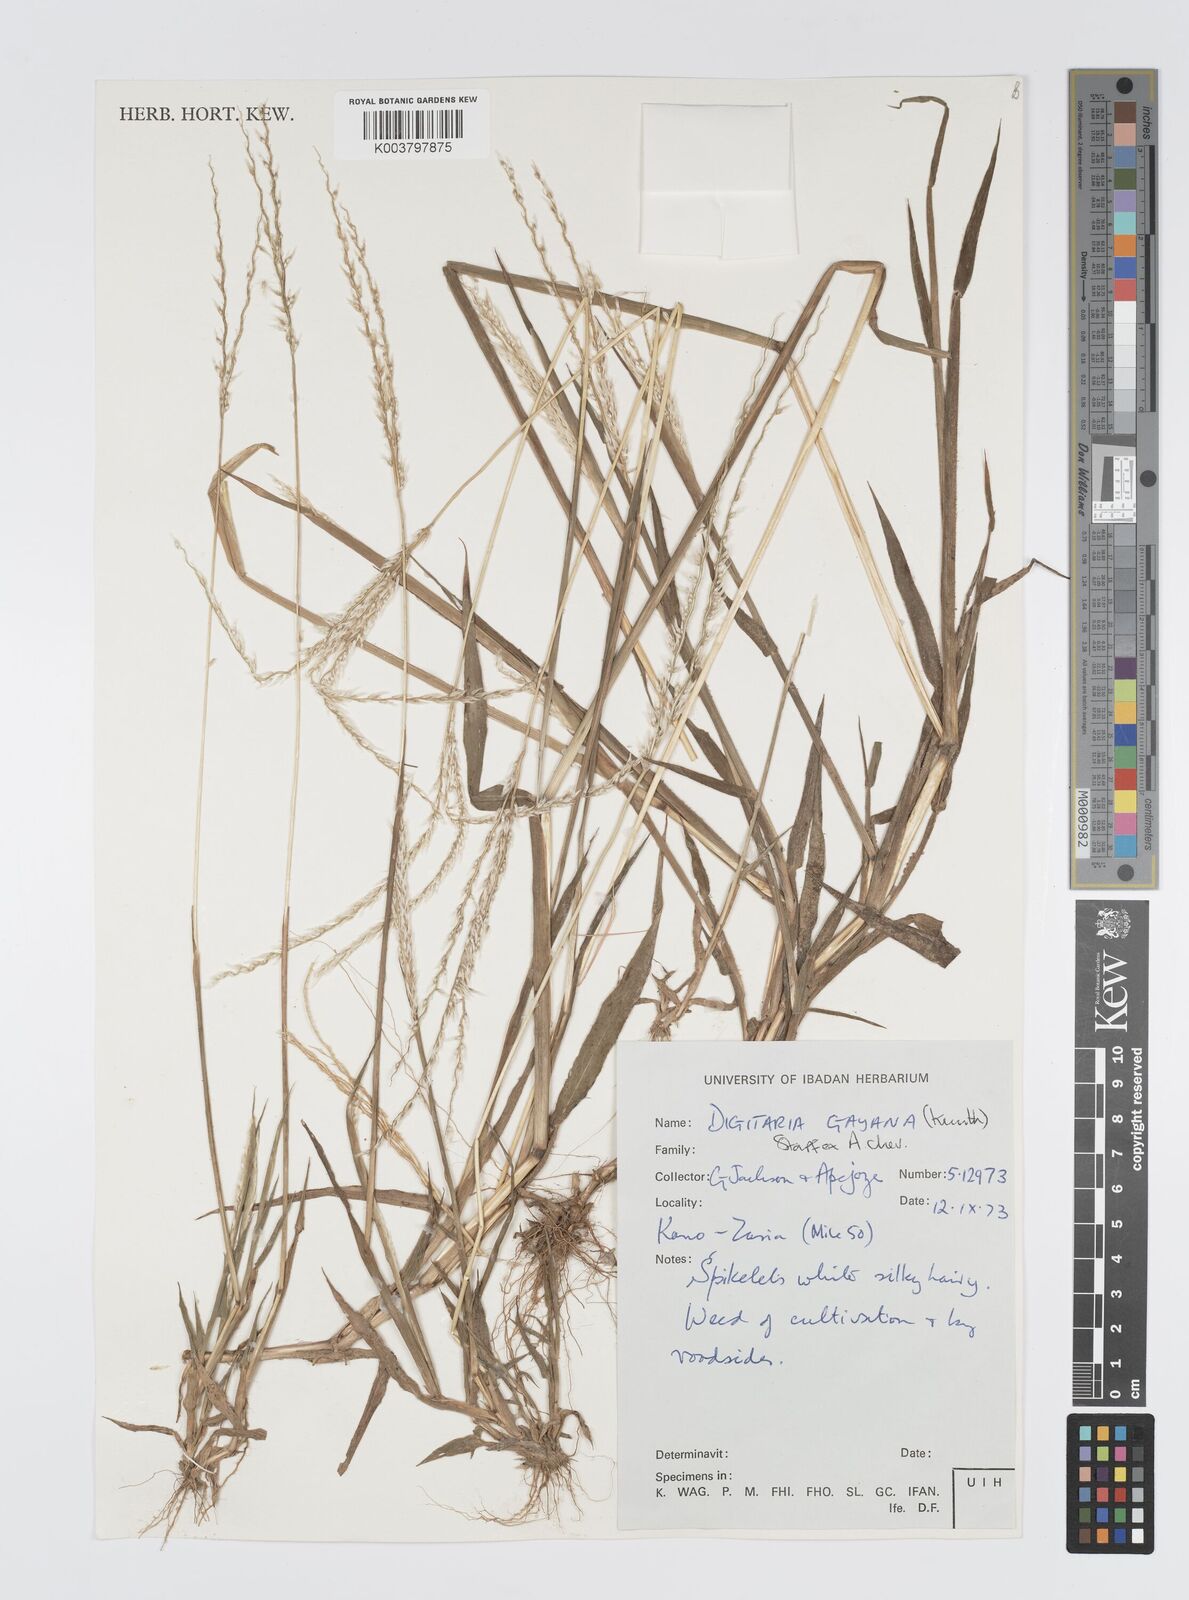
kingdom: Plantae
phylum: Tracheophyta
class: Liliopsida
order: Poales
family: Poaceae
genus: Digitaria
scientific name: Digitaria gayana
